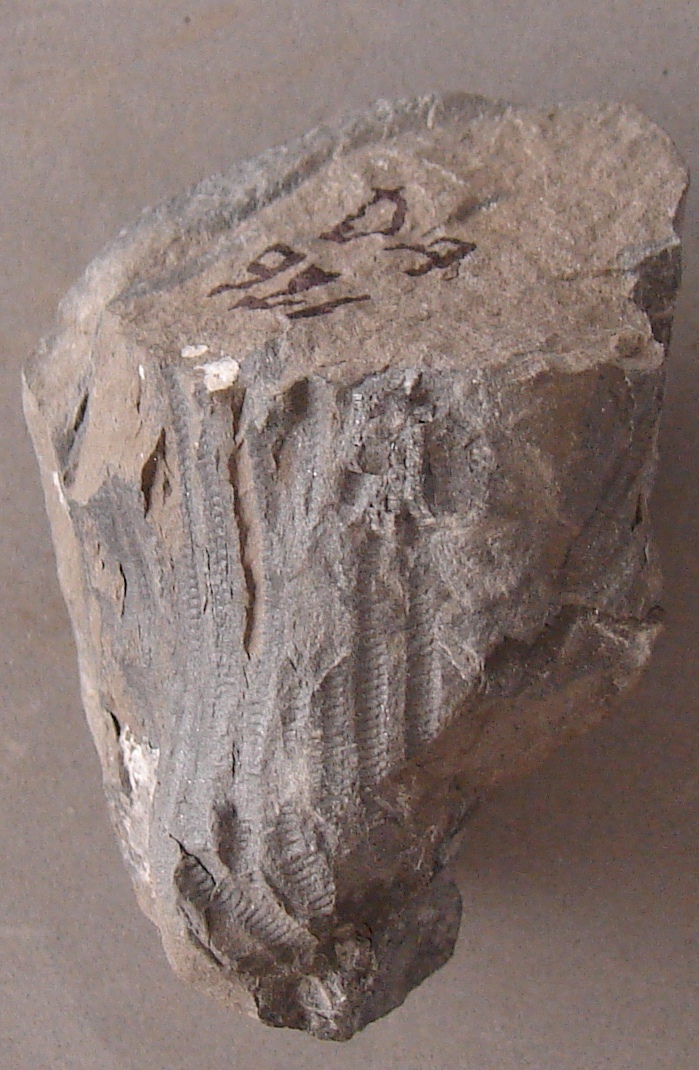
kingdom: Animalia
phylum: Echinodermata
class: Crinoidea
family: Rhodocrinitidae
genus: Acanthocrinus
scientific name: Acanthocrinus
